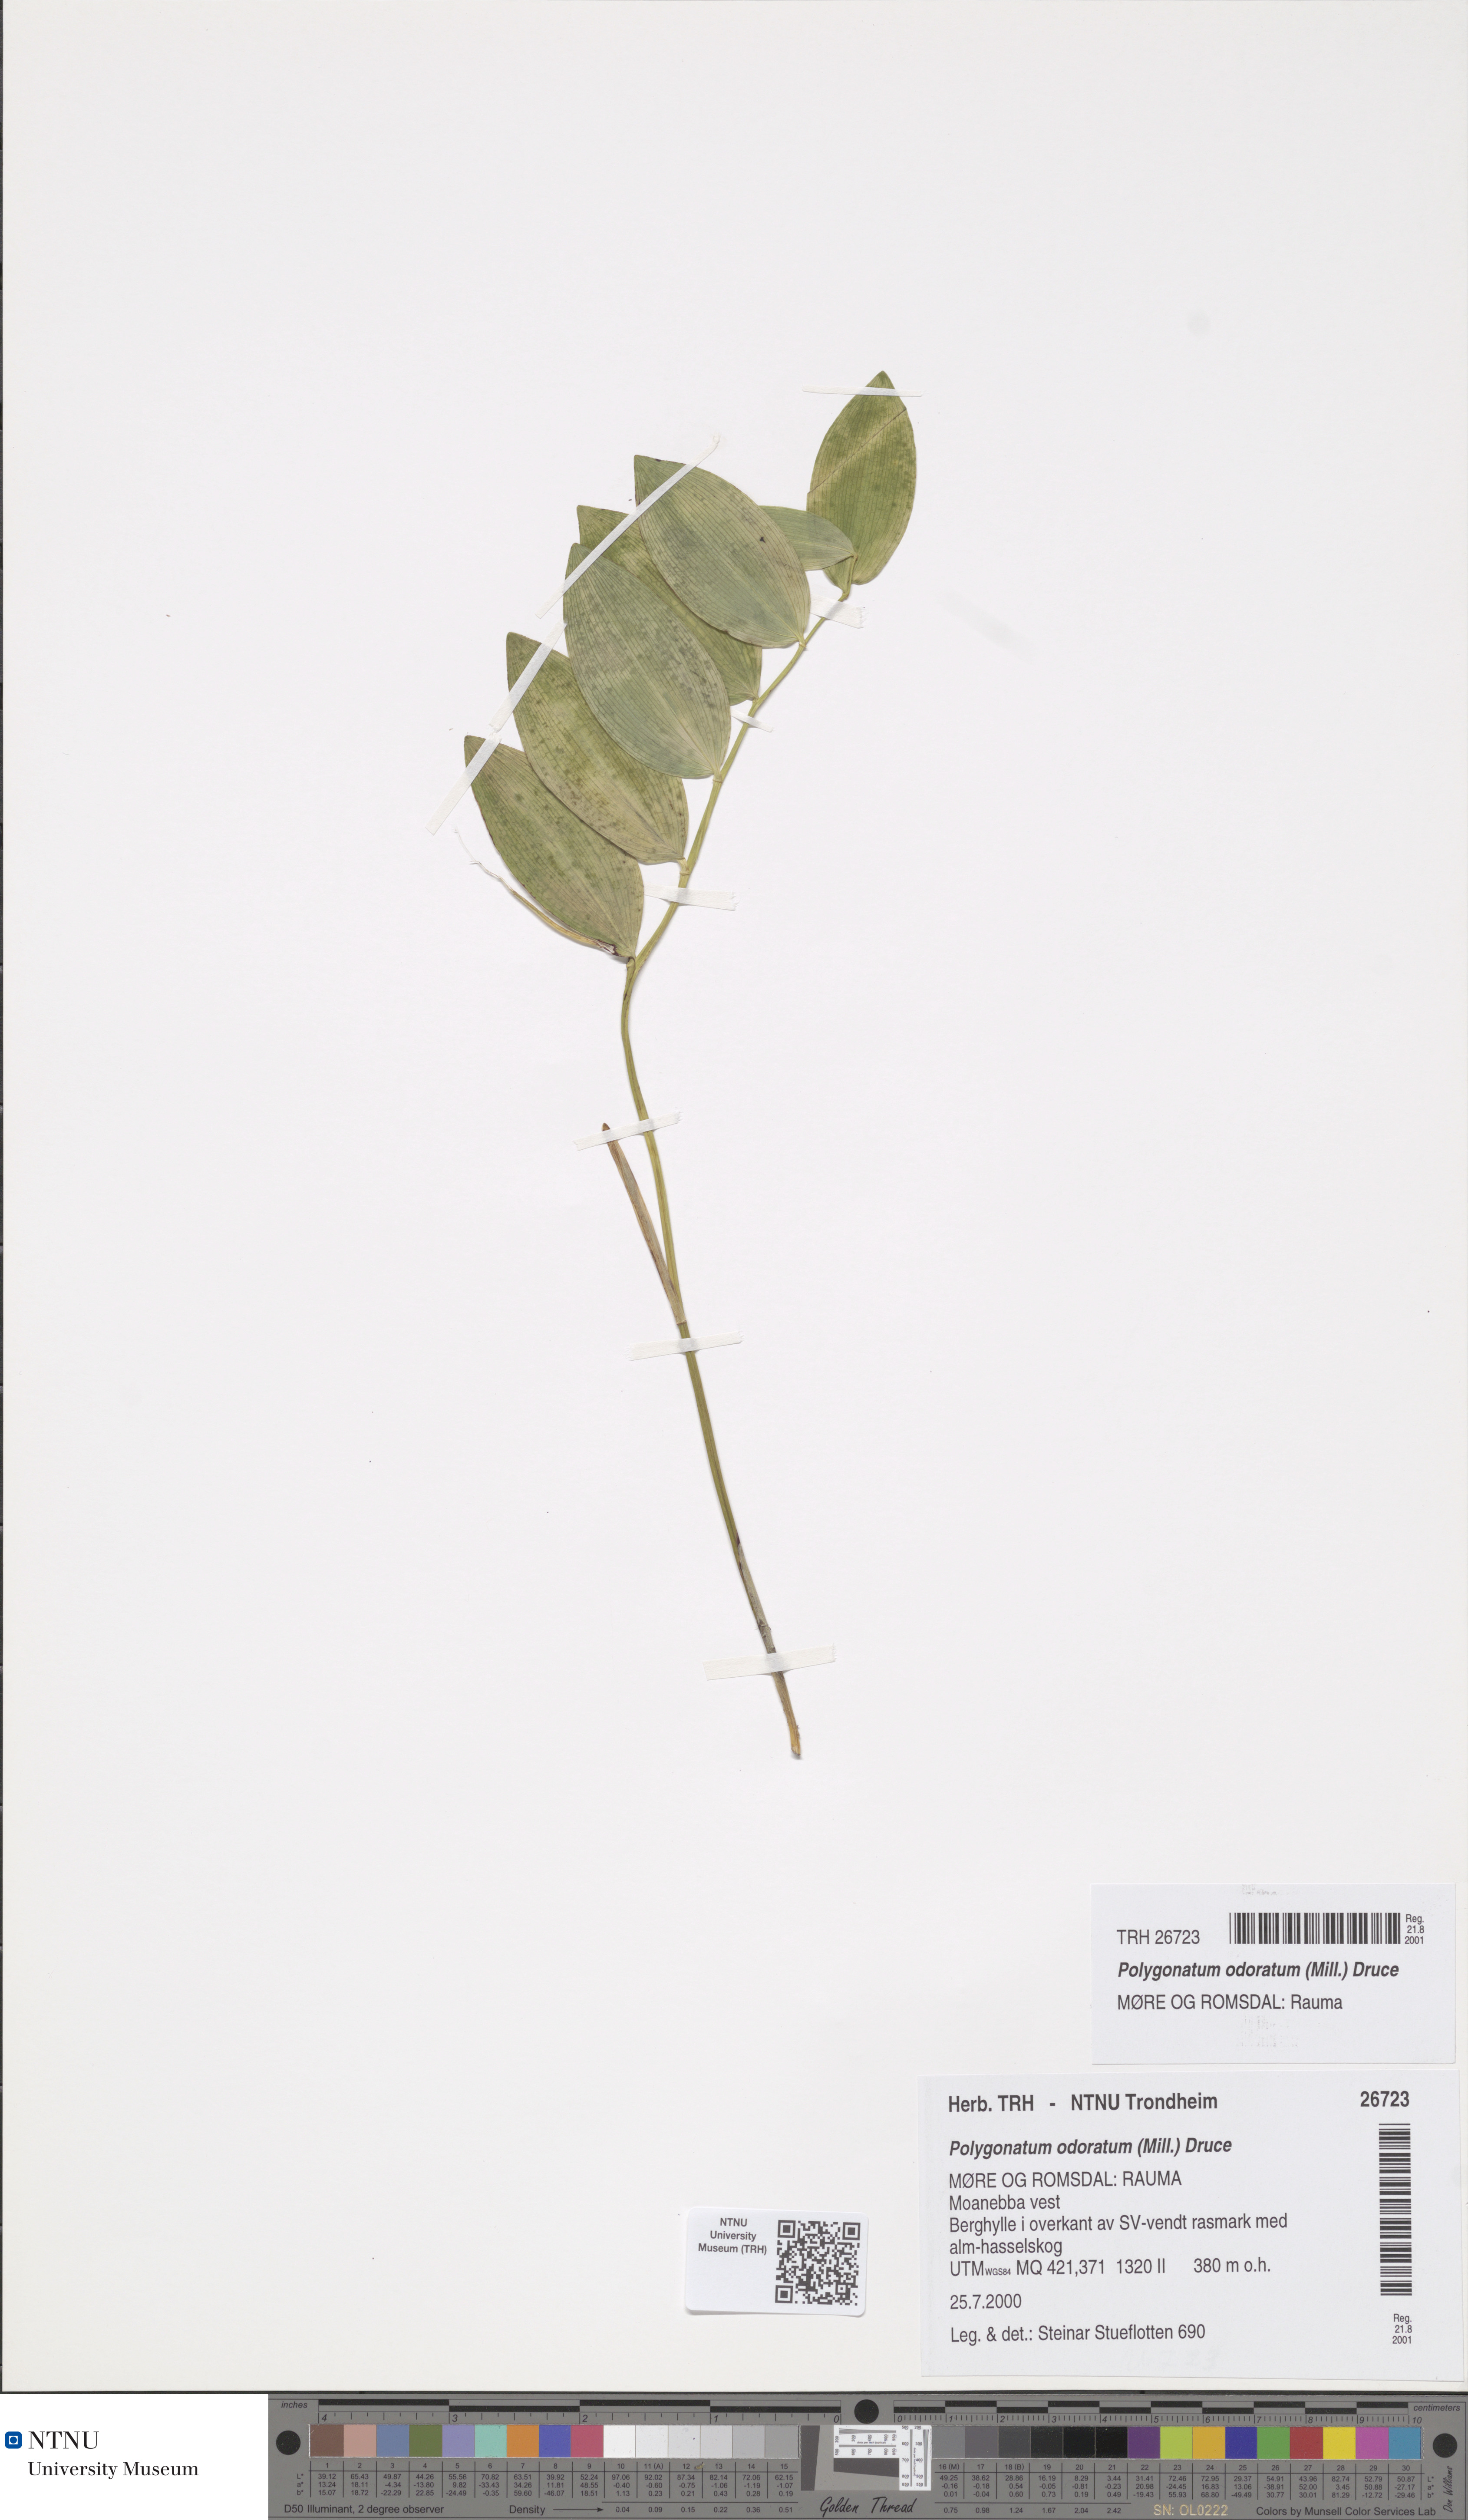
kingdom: Plantae
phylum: Tracheophyta
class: Liliopsida
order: Asparagales
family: Asparagaceae
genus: Polygonatum
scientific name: Polygonatum odoratum
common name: Angular solomon's-seal
